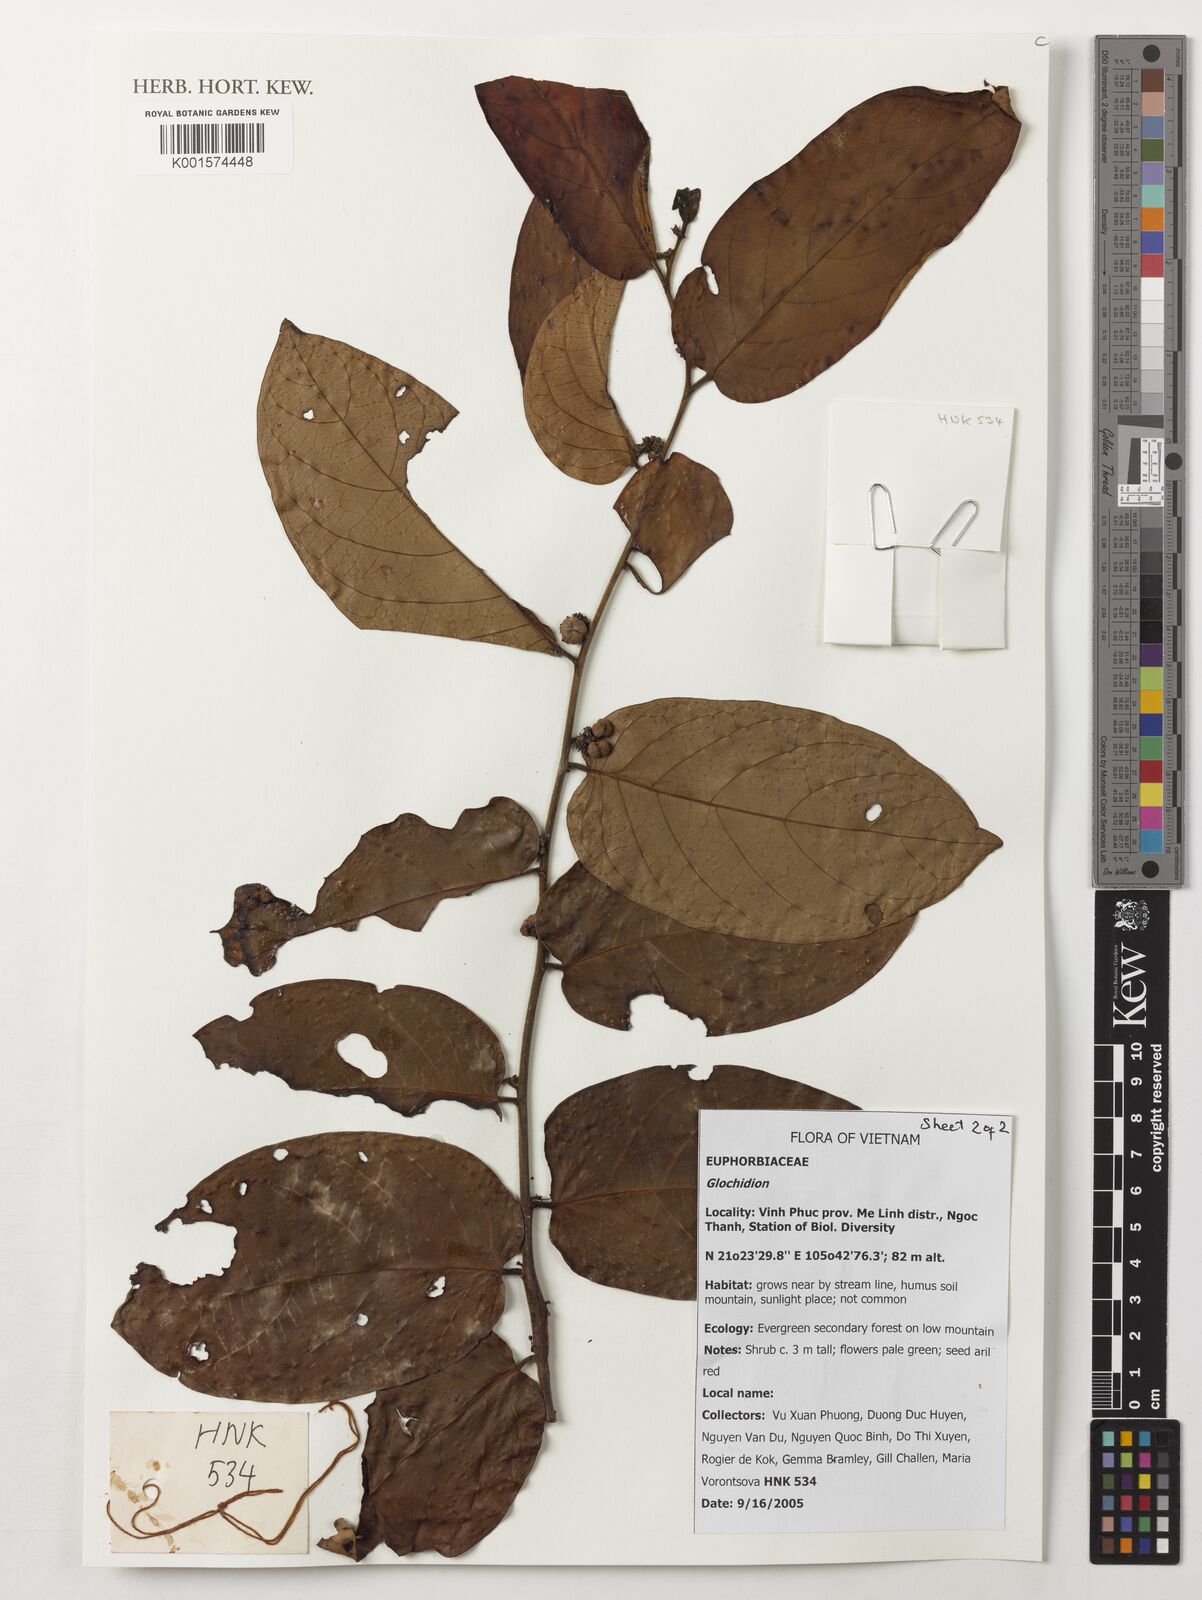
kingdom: Plantae
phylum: Tracheophyta
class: Magnoliopsida
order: Malpighiales
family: Phyllanthaceae
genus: Glochidion
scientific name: Glochidion
